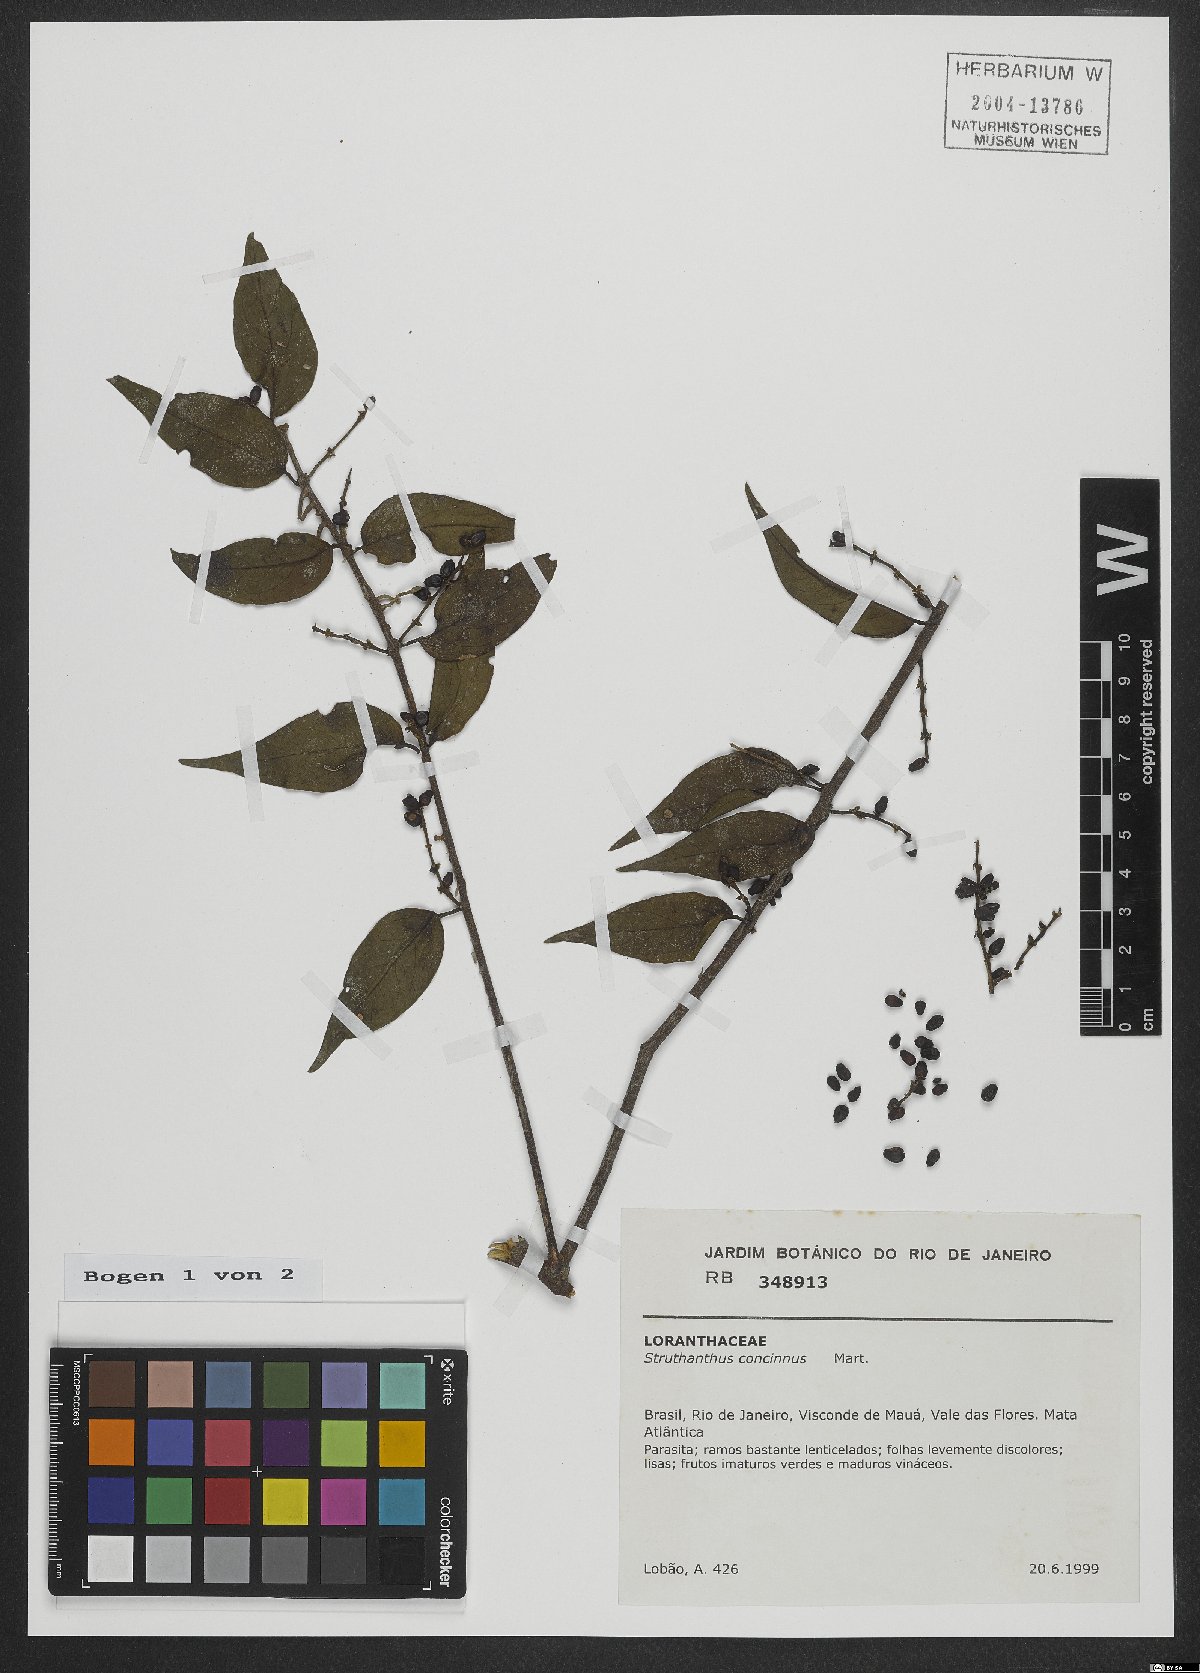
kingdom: Plantae
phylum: Tracheophyta
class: Magnoliopsida
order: Santalales
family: Loranthaceae
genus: Struthanthus
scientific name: Struthanthus concinnus
